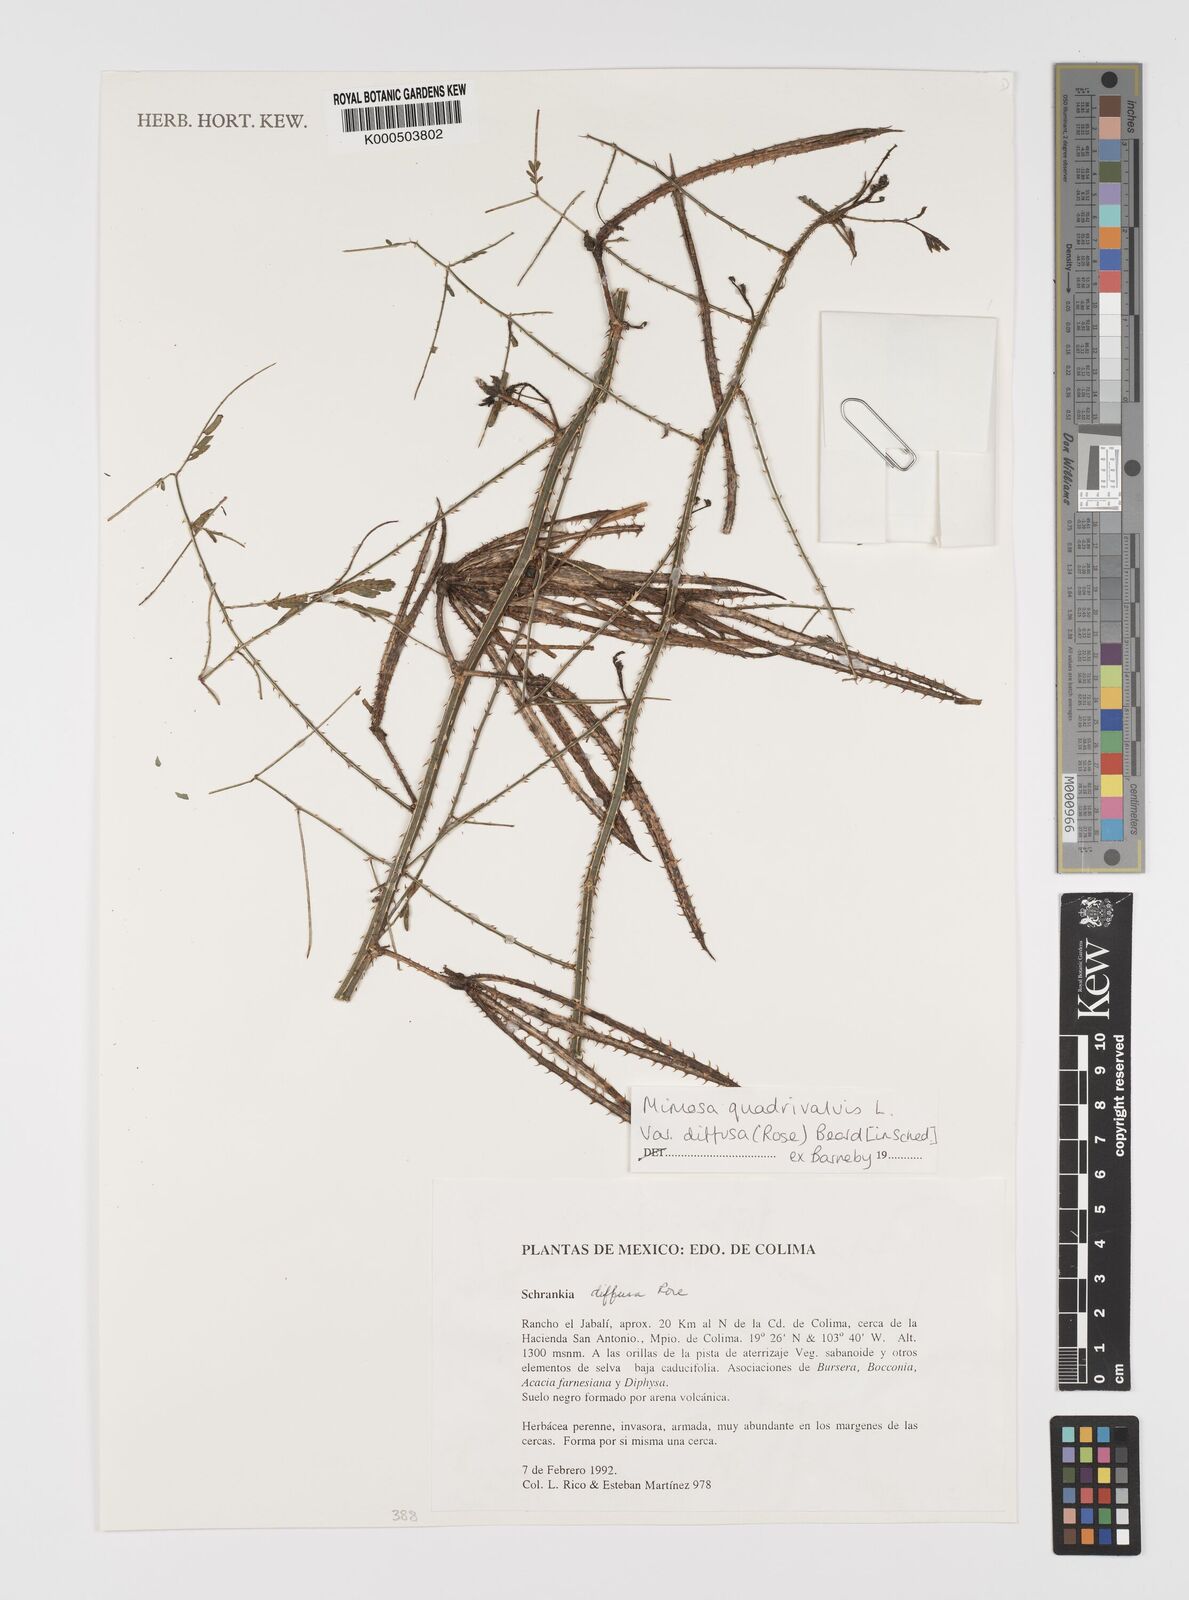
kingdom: Plantae
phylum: Tracheophyta
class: Magnoliopsida
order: Fabales
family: Fabaceae
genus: Mimosa
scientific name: Mimosa quadrivalvis
